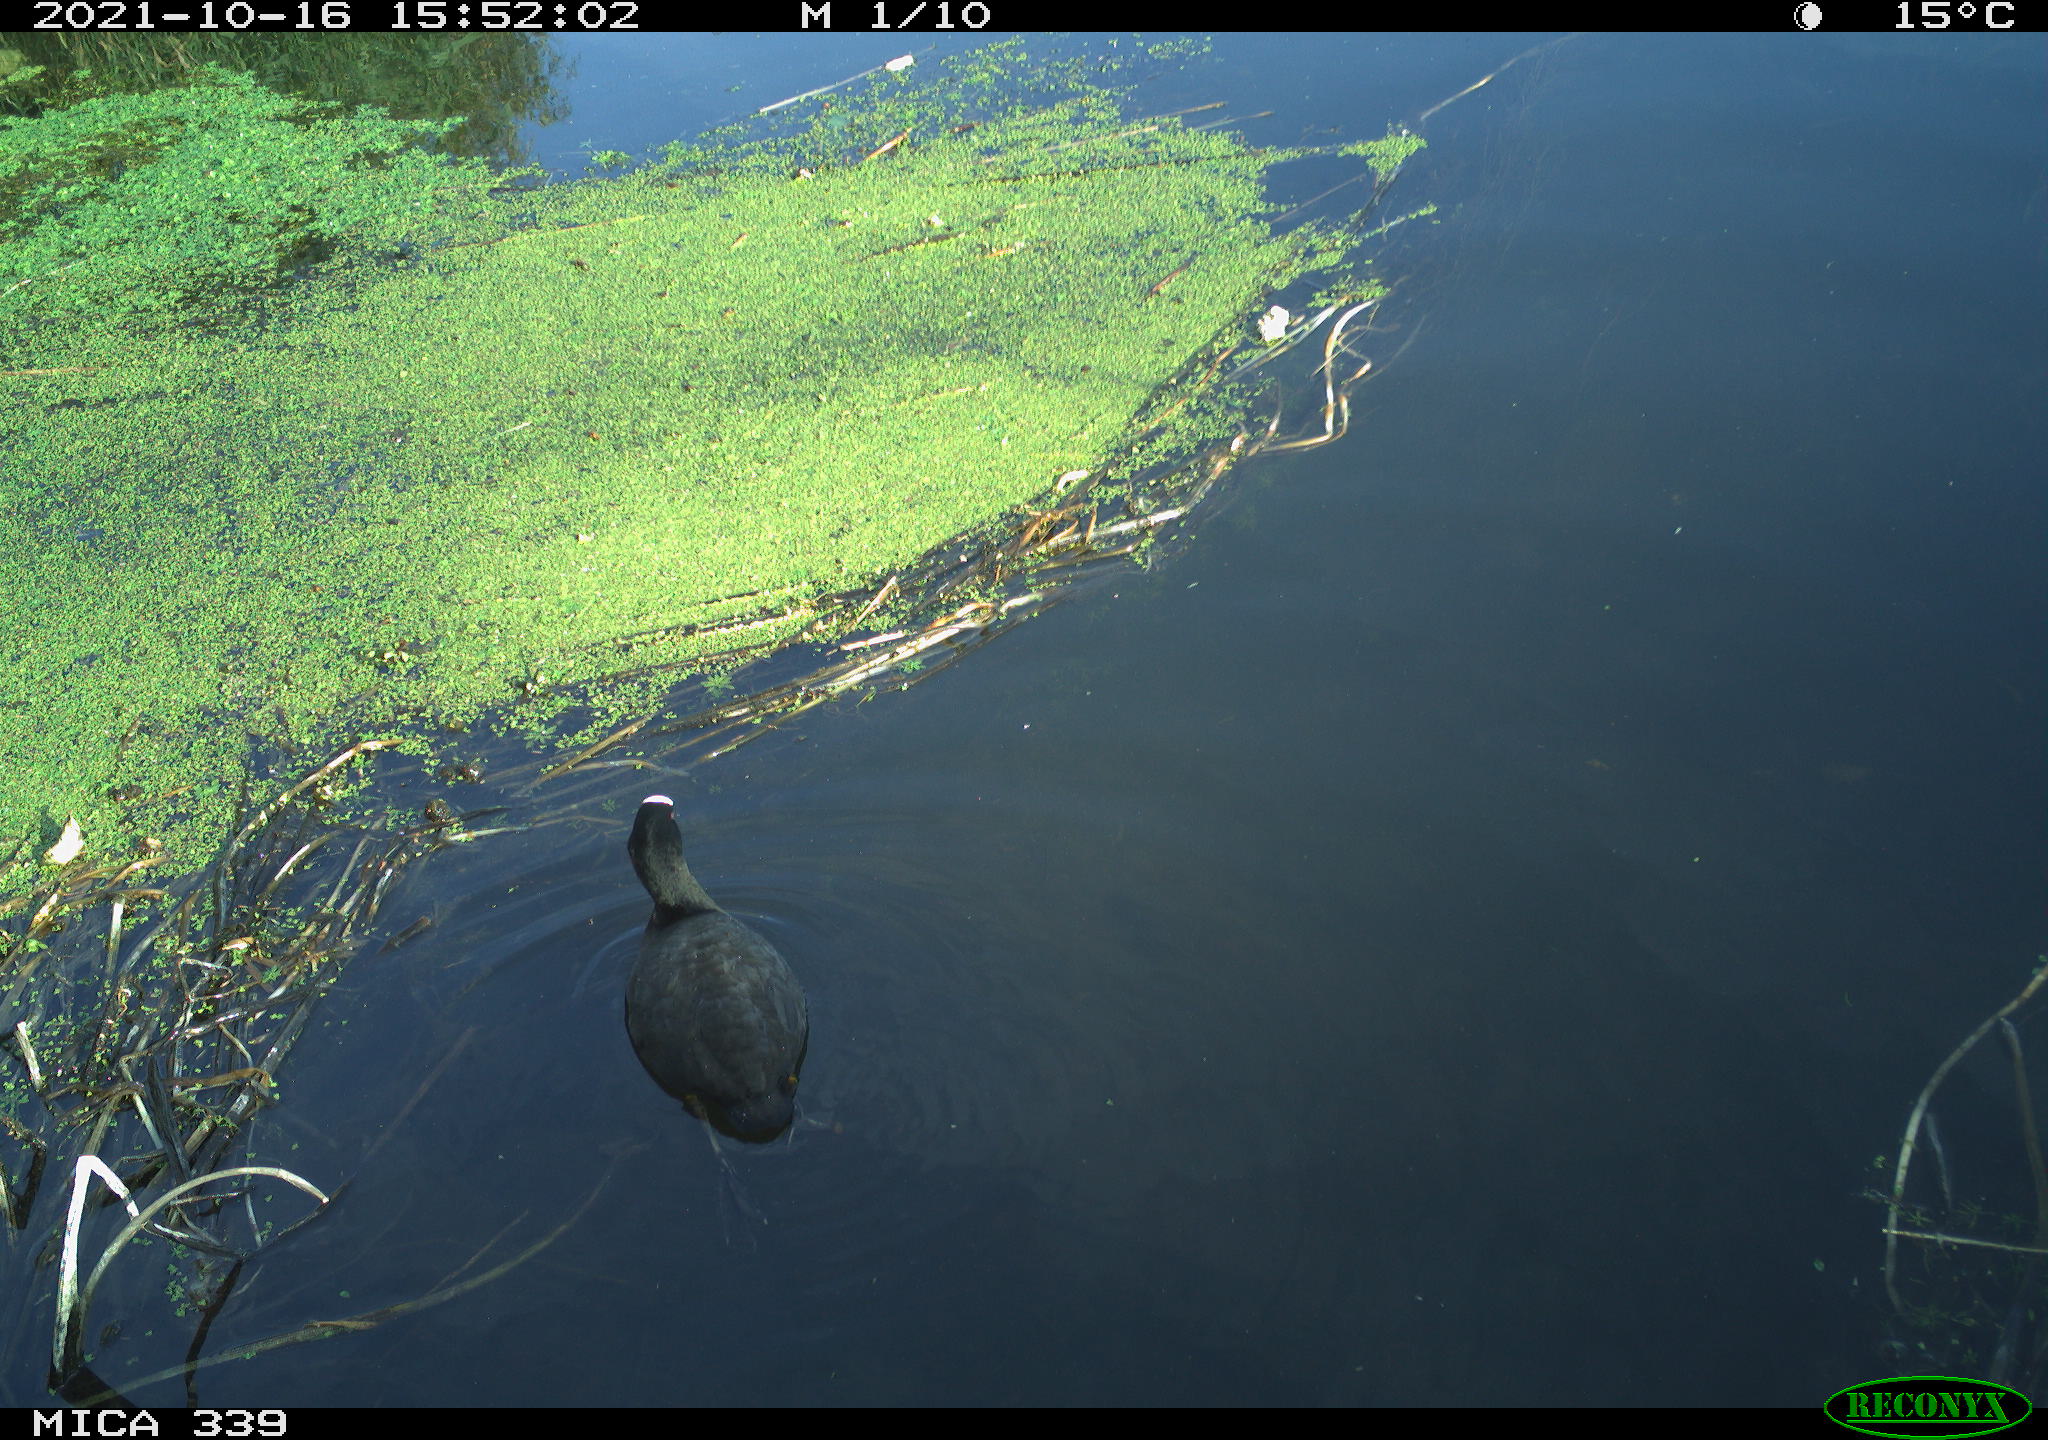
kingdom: Animalia
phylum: Chordata
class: Aves
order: Gruiformes
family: Rallidae
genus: Fulica
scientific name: Fulica atra
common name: Eurasian coot
